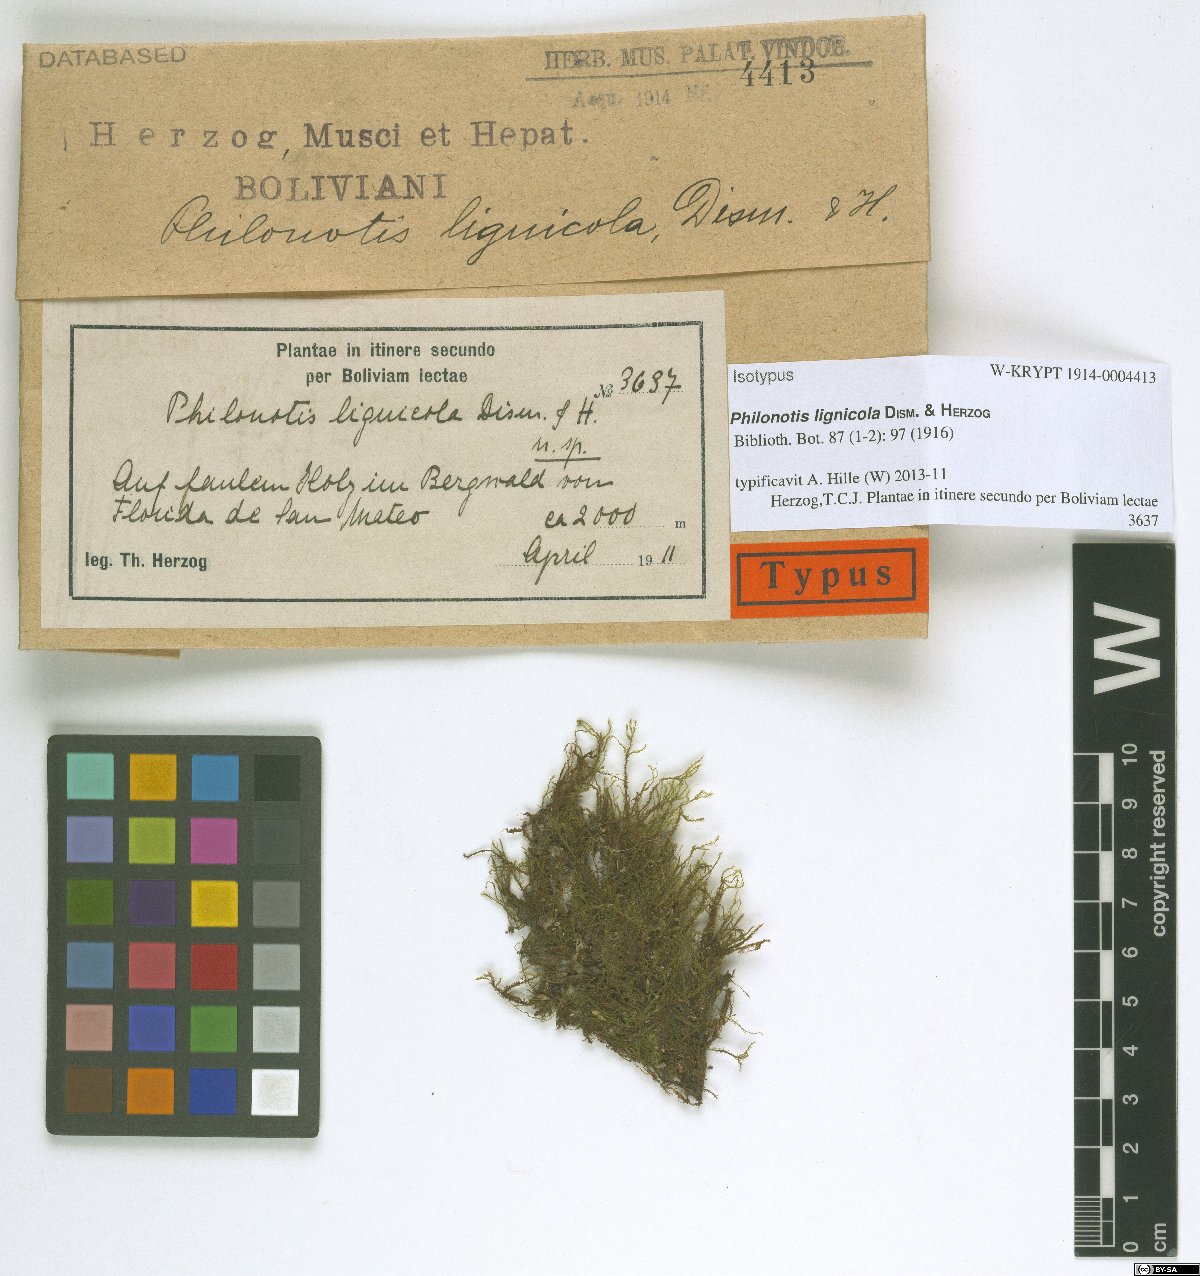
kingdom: Plantae
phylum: Bryophyta
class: Bryopsida
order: Bartramiales
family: Bartramiaceae
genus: Philonotis
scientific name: Philonotis lignicola
